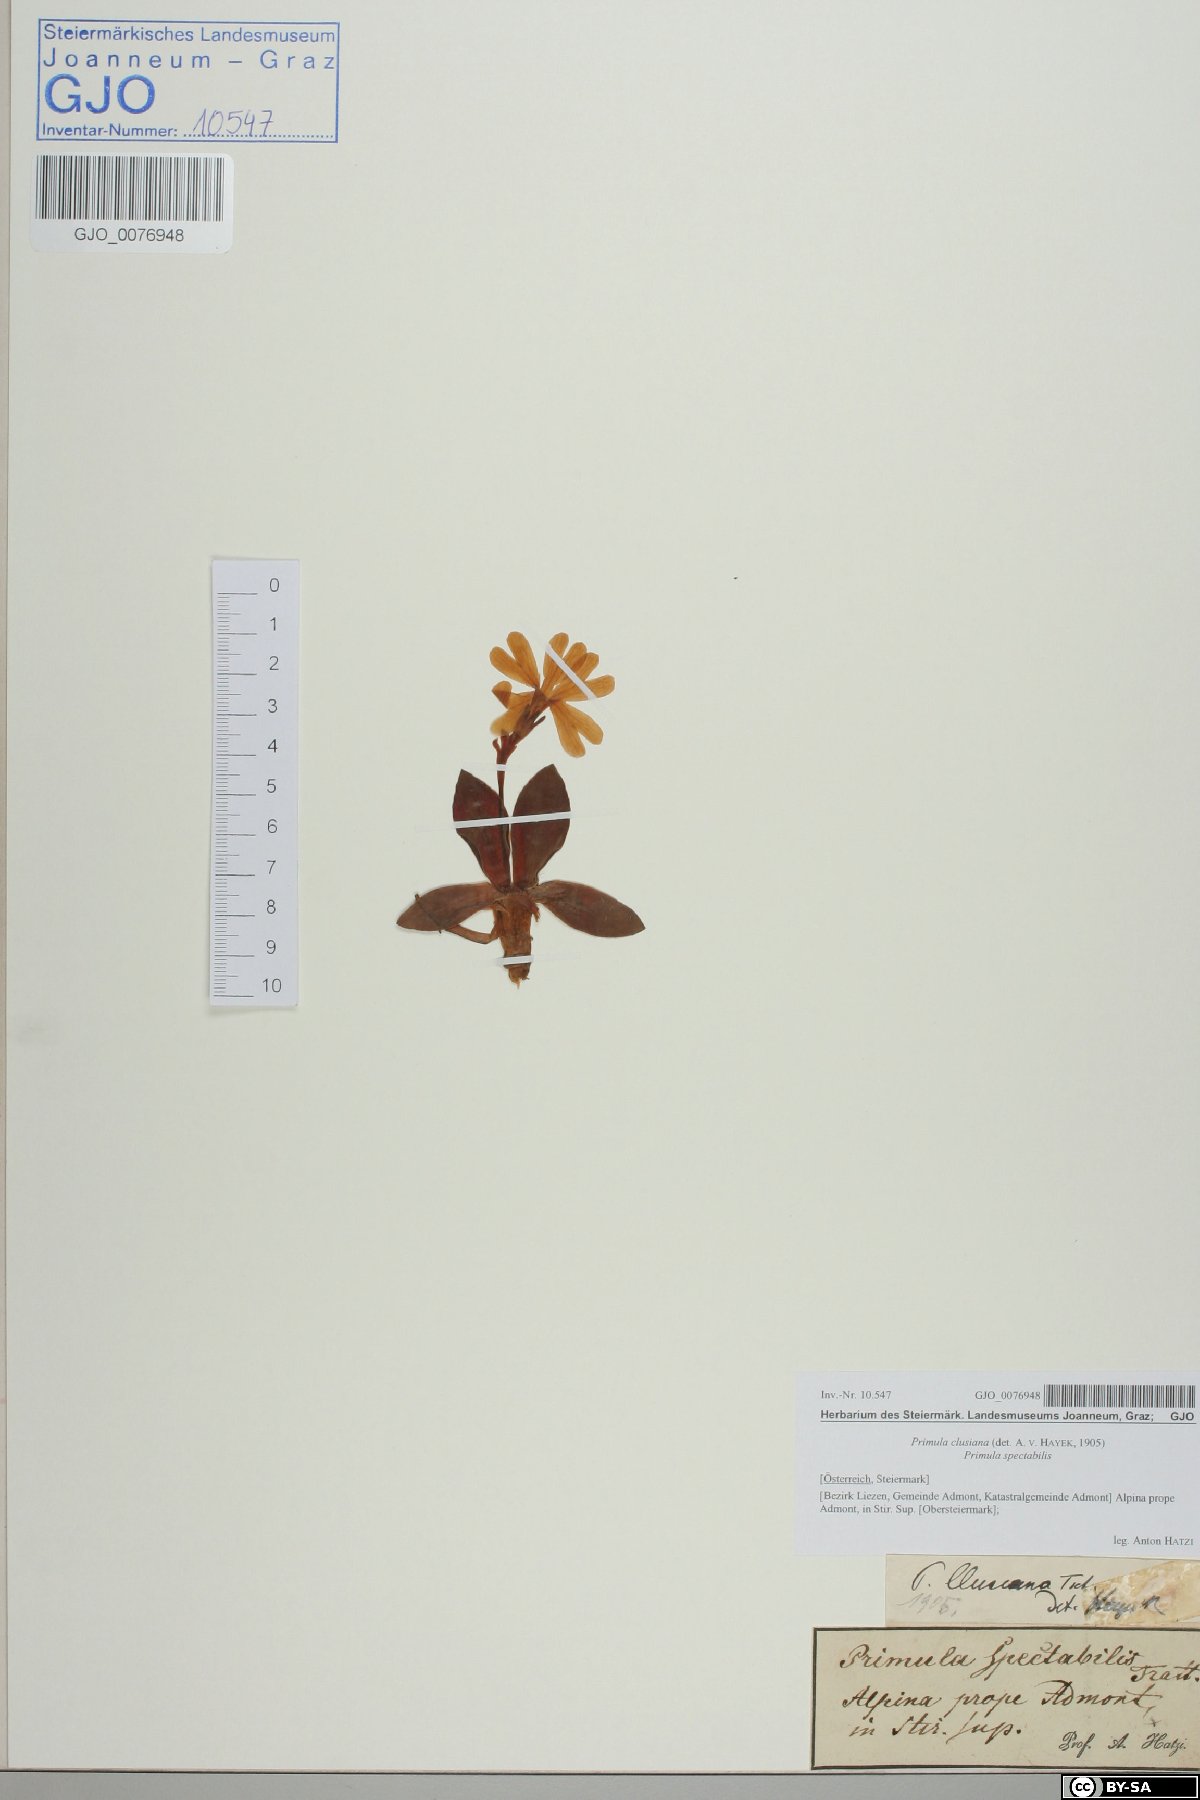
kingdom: Plantae
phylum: Tracheophyta
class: Magnoliopsida
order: Ericales
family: Primulaceae
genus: Primula
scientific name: Primula clusiana
